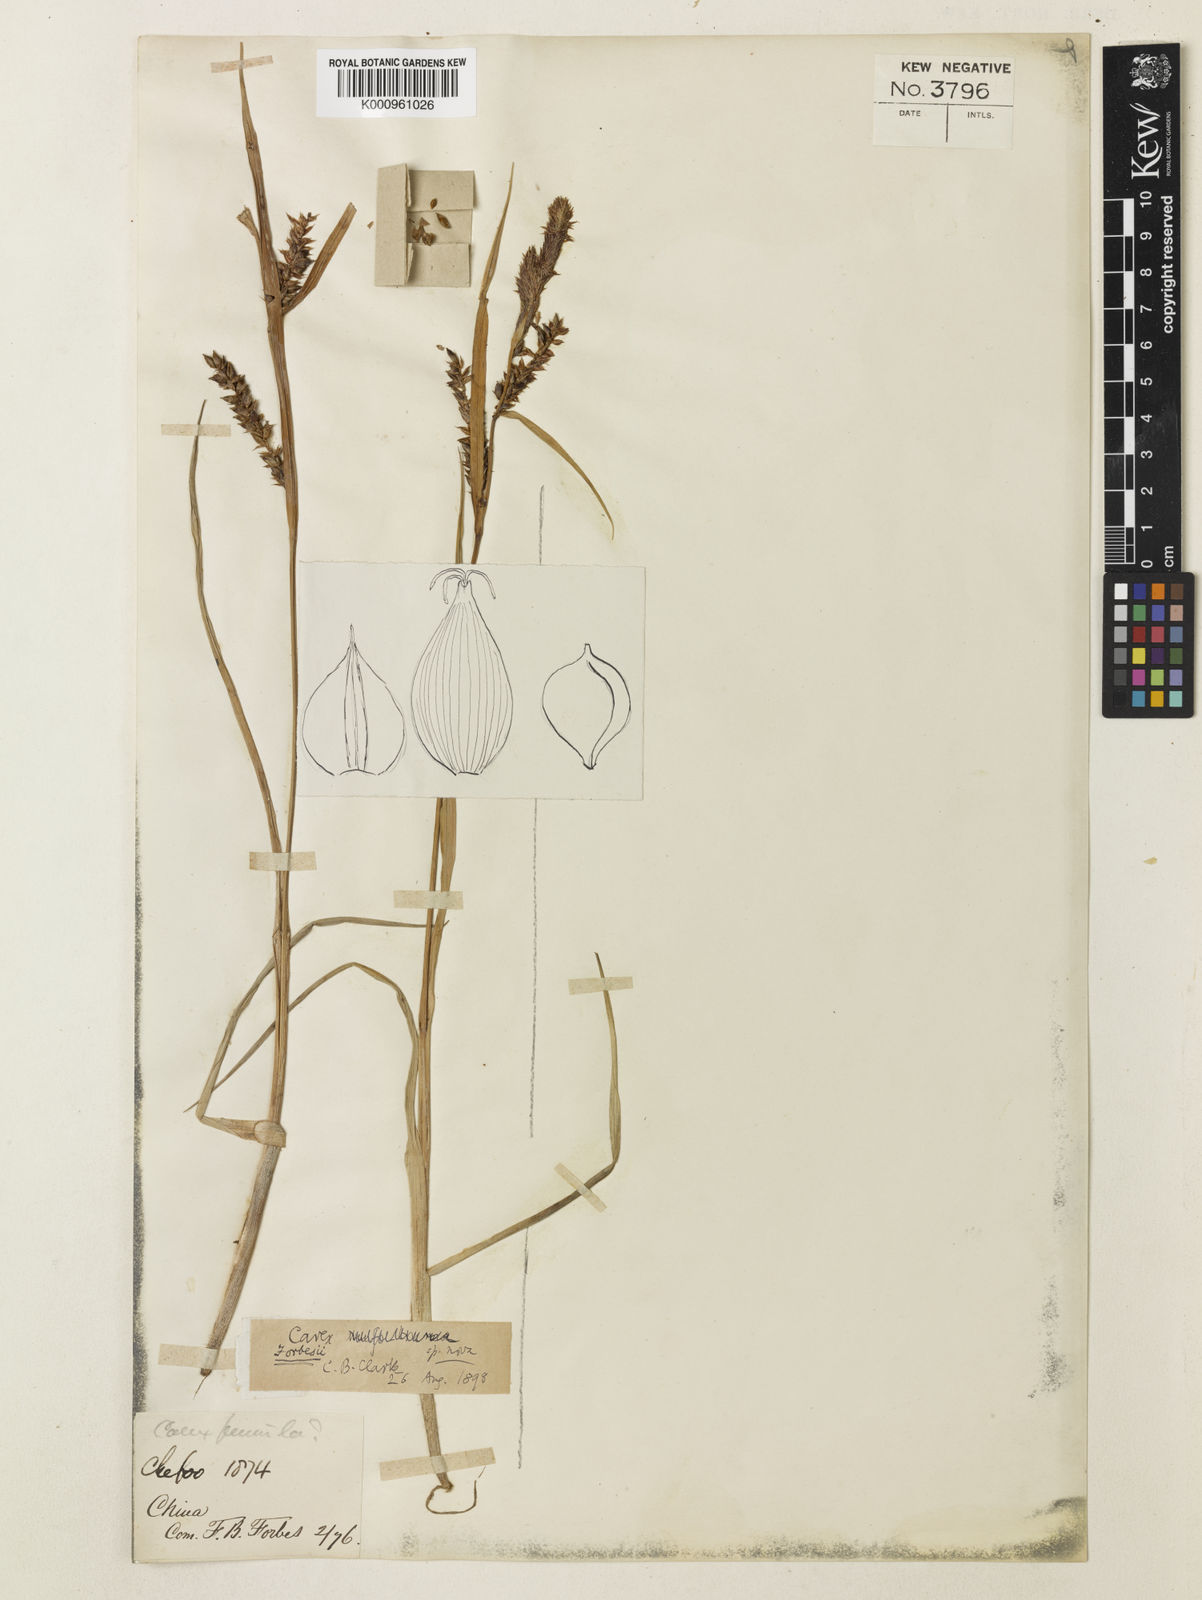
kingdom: Plantae
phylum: Tracheophyta
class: Liliopsida
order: Poales
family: Cyperaceae
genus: Carex
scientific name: Carex pumila
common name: Dwarf sedge
